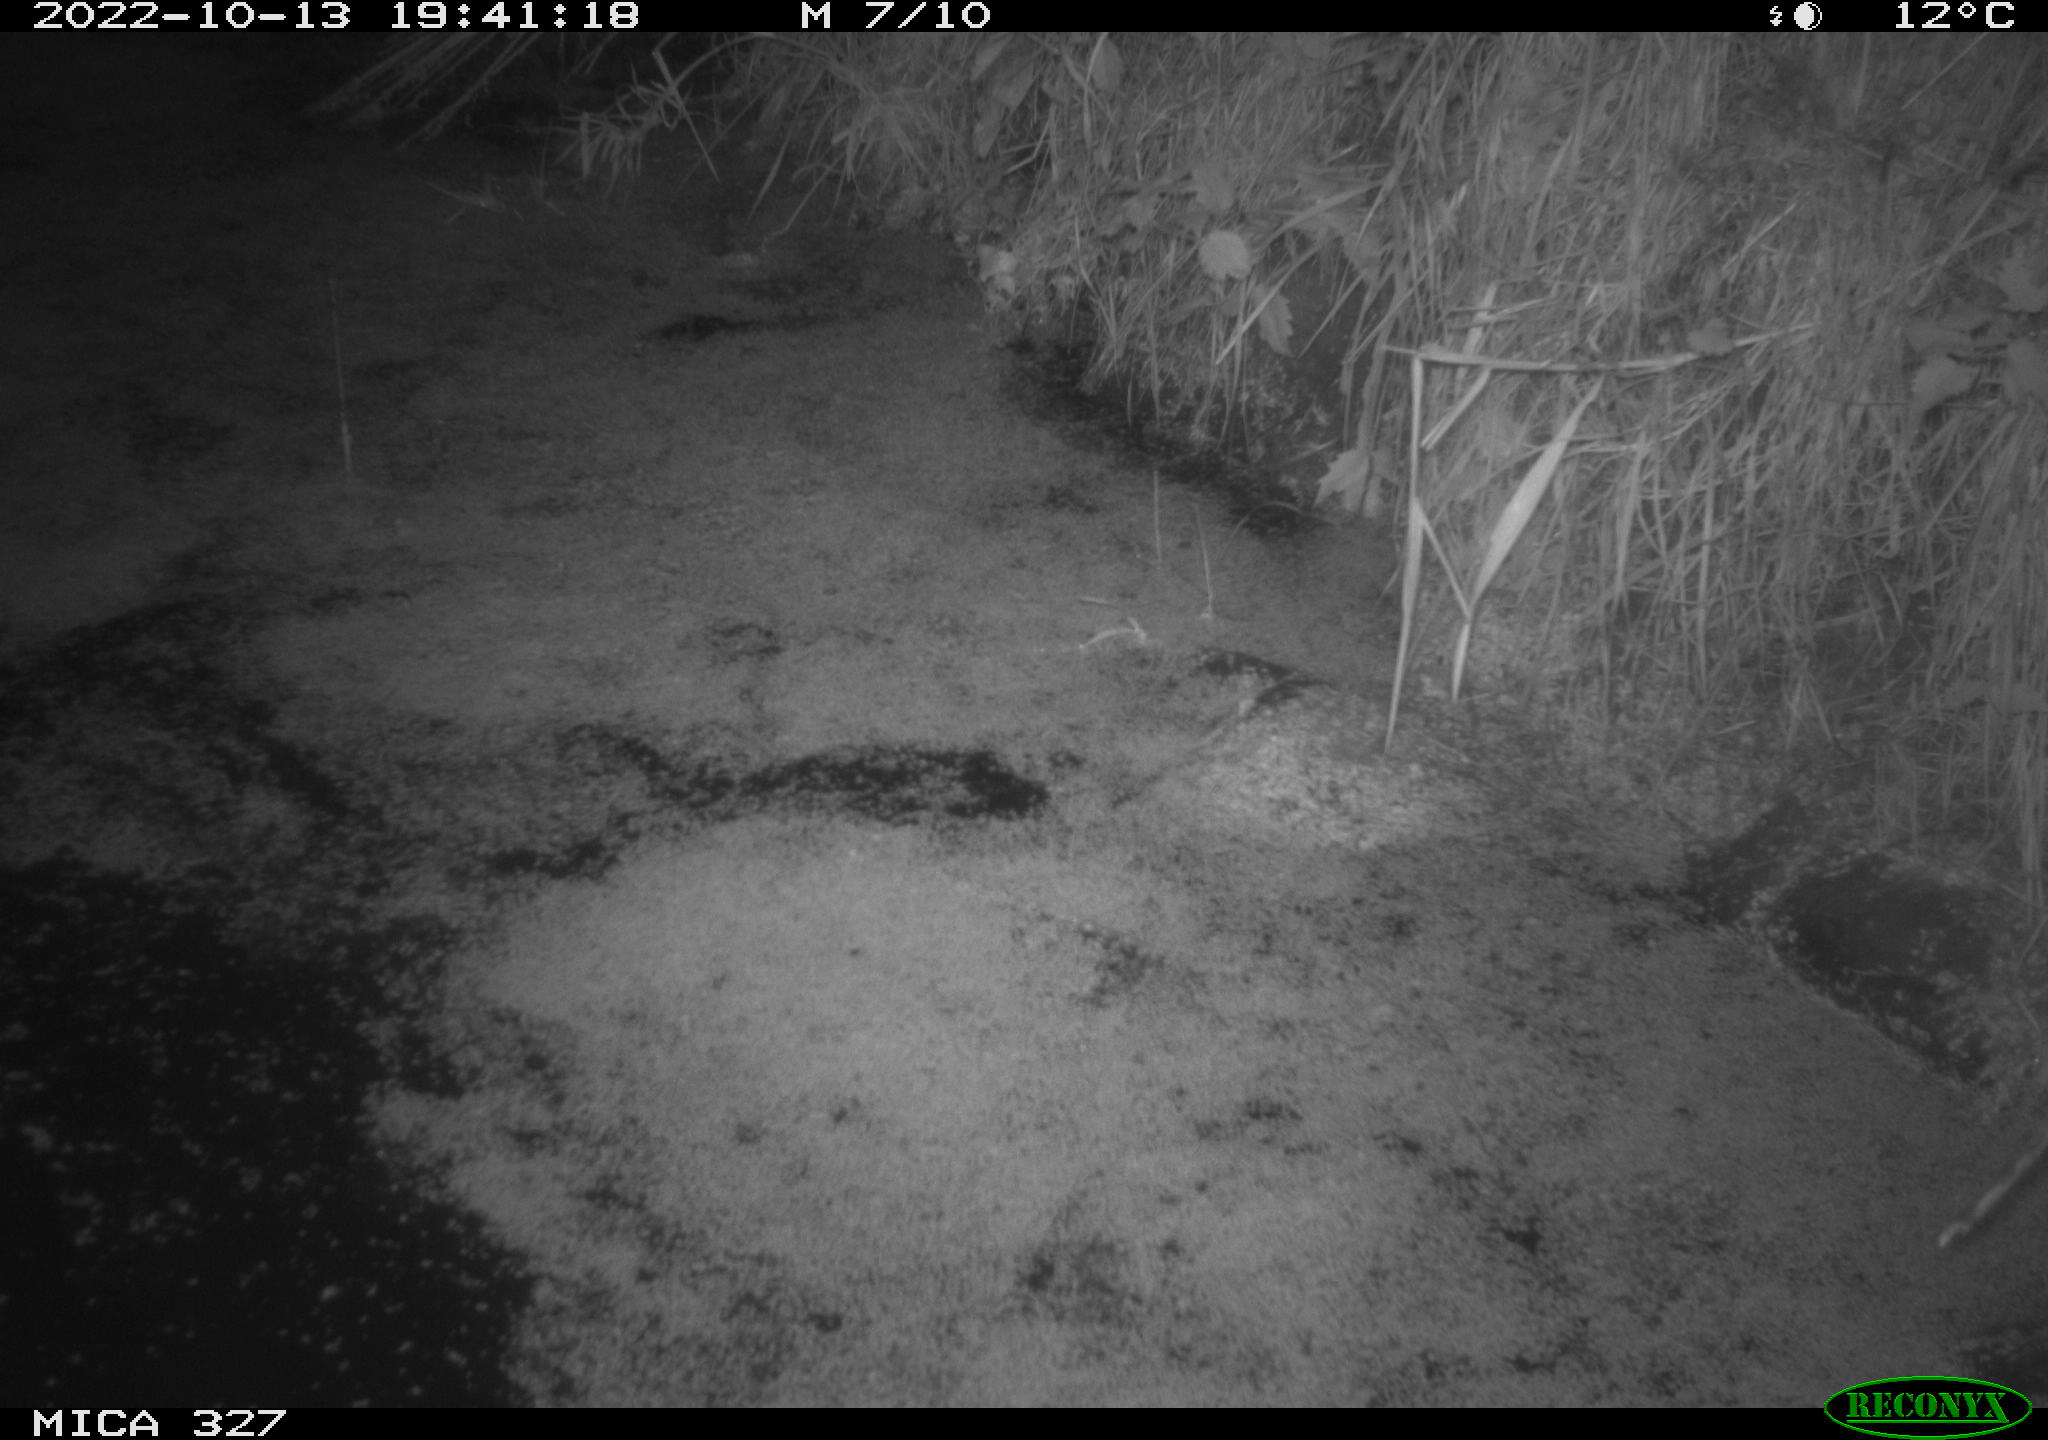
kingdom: Animalia
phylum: Chordata
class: Mammalia
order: Rodentia
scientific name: Rodentia
